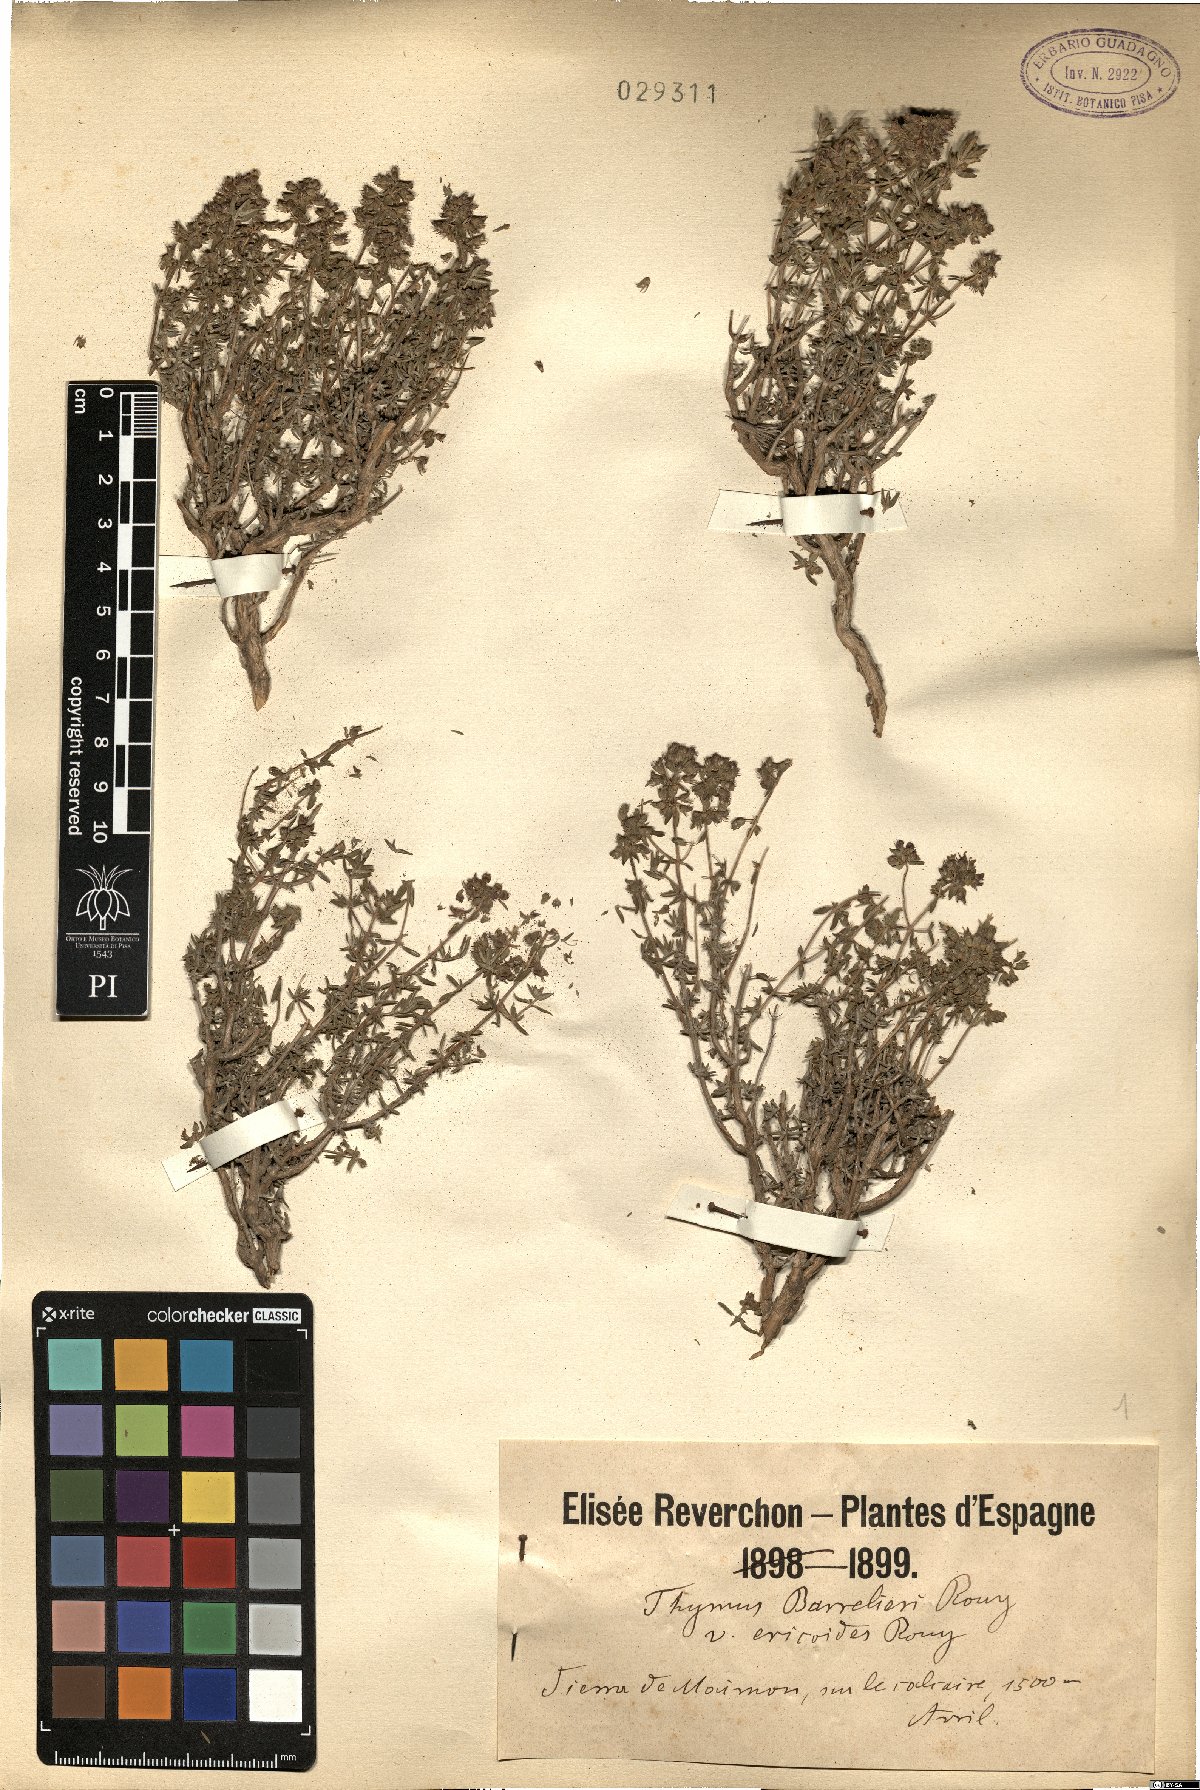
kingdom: Plantae
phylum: Tracheophyta
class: Magnoliopsida
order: Lamiales
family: Lamiaceae
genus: Thymus
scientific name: Thymus hyemalis
